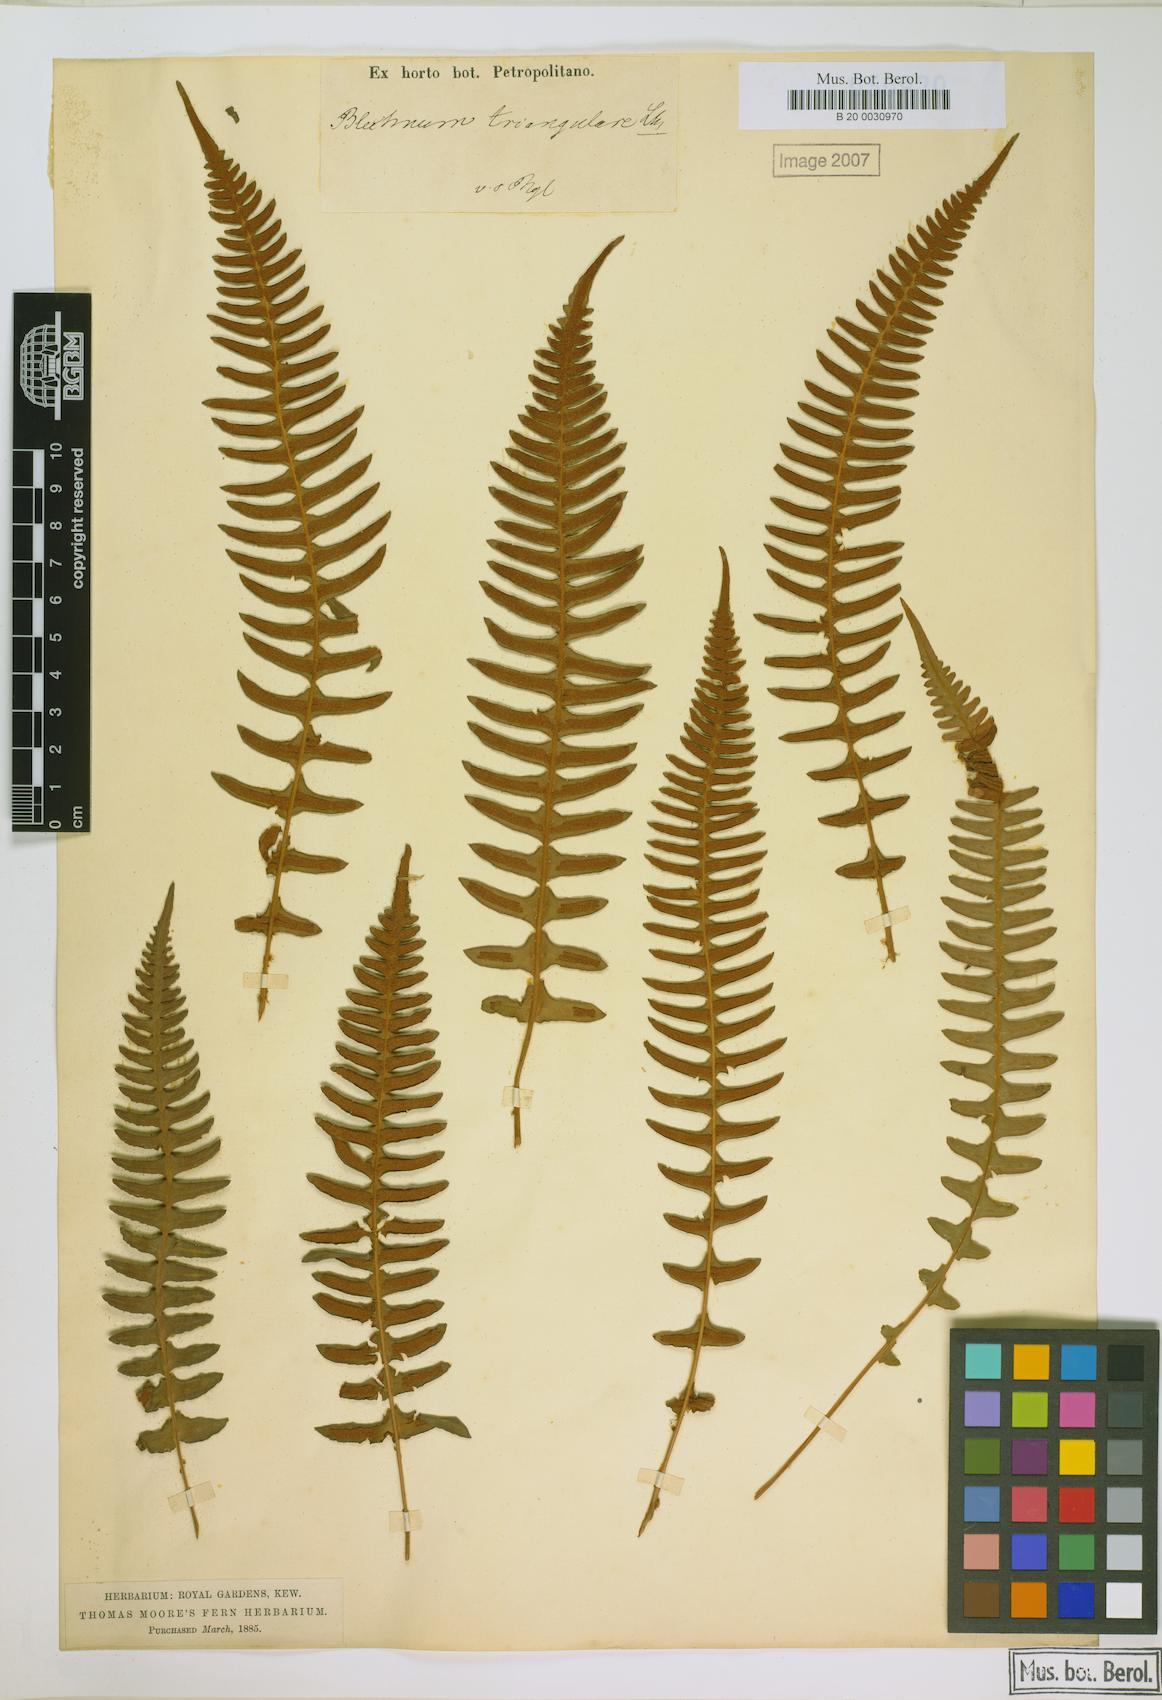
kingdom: Plantae
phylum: Tracheophyta
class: Polypodiopsida
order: Polypodiales
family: Blechnaceae
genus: Blechnum
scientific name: Blechnum laevigatum
